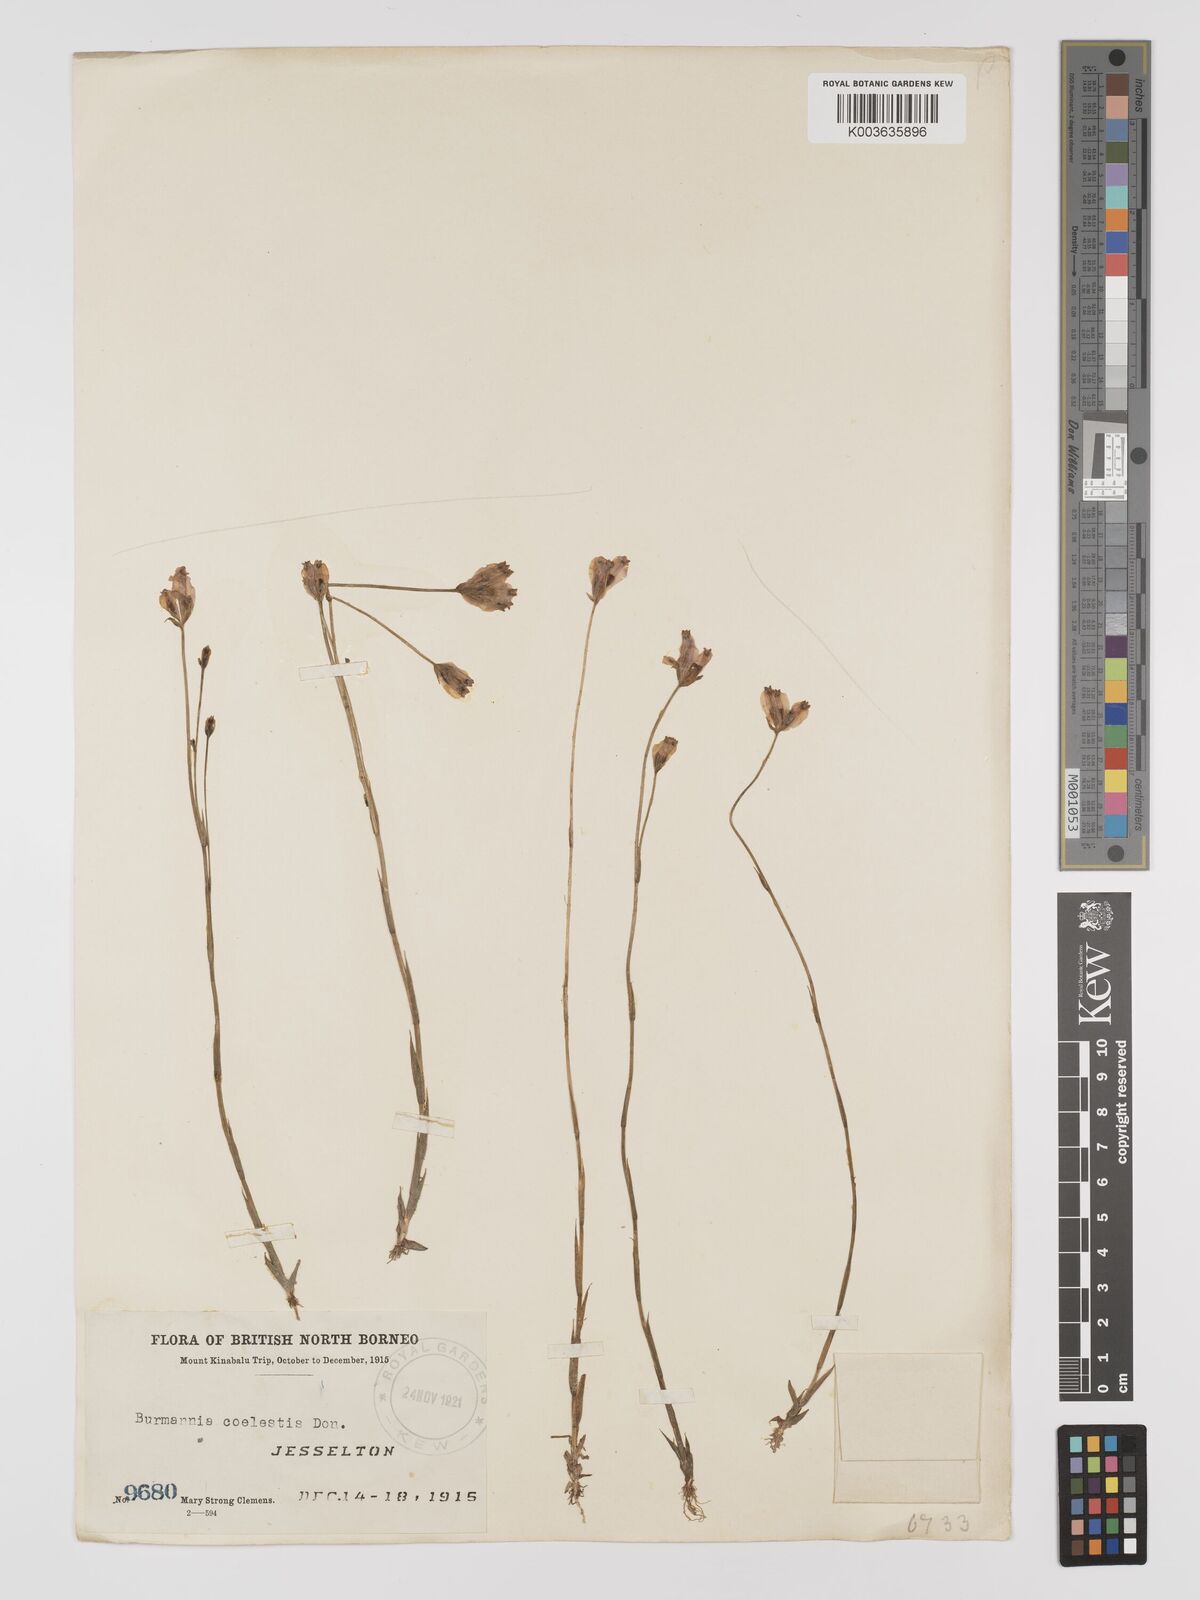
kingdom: Plantae
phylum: Tracheophyta
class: Liliopsida
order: Dioscoreales
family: Burmanniaceae
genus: Burmannia
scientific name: Burmannia coelestis
